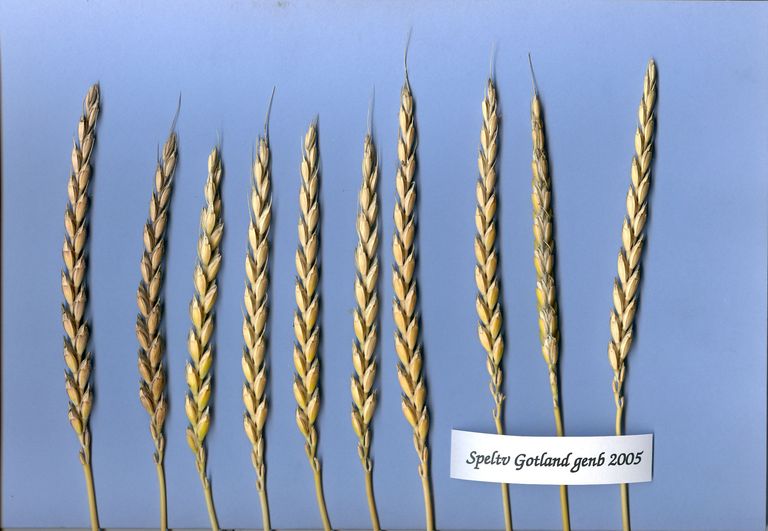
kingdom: Plantae
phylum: Tracheophyta
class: Liliopsida
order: Poales
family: Poaceae
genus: Triticum
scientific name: Triticum aestivum
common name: Common wheat
